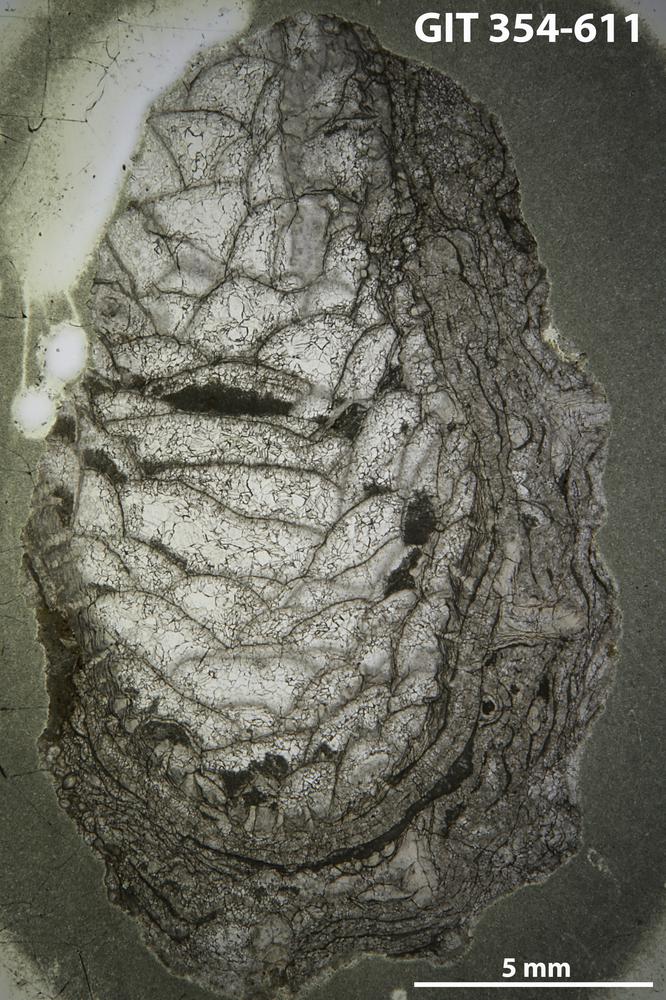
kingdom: Animalia
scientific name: Animalia
